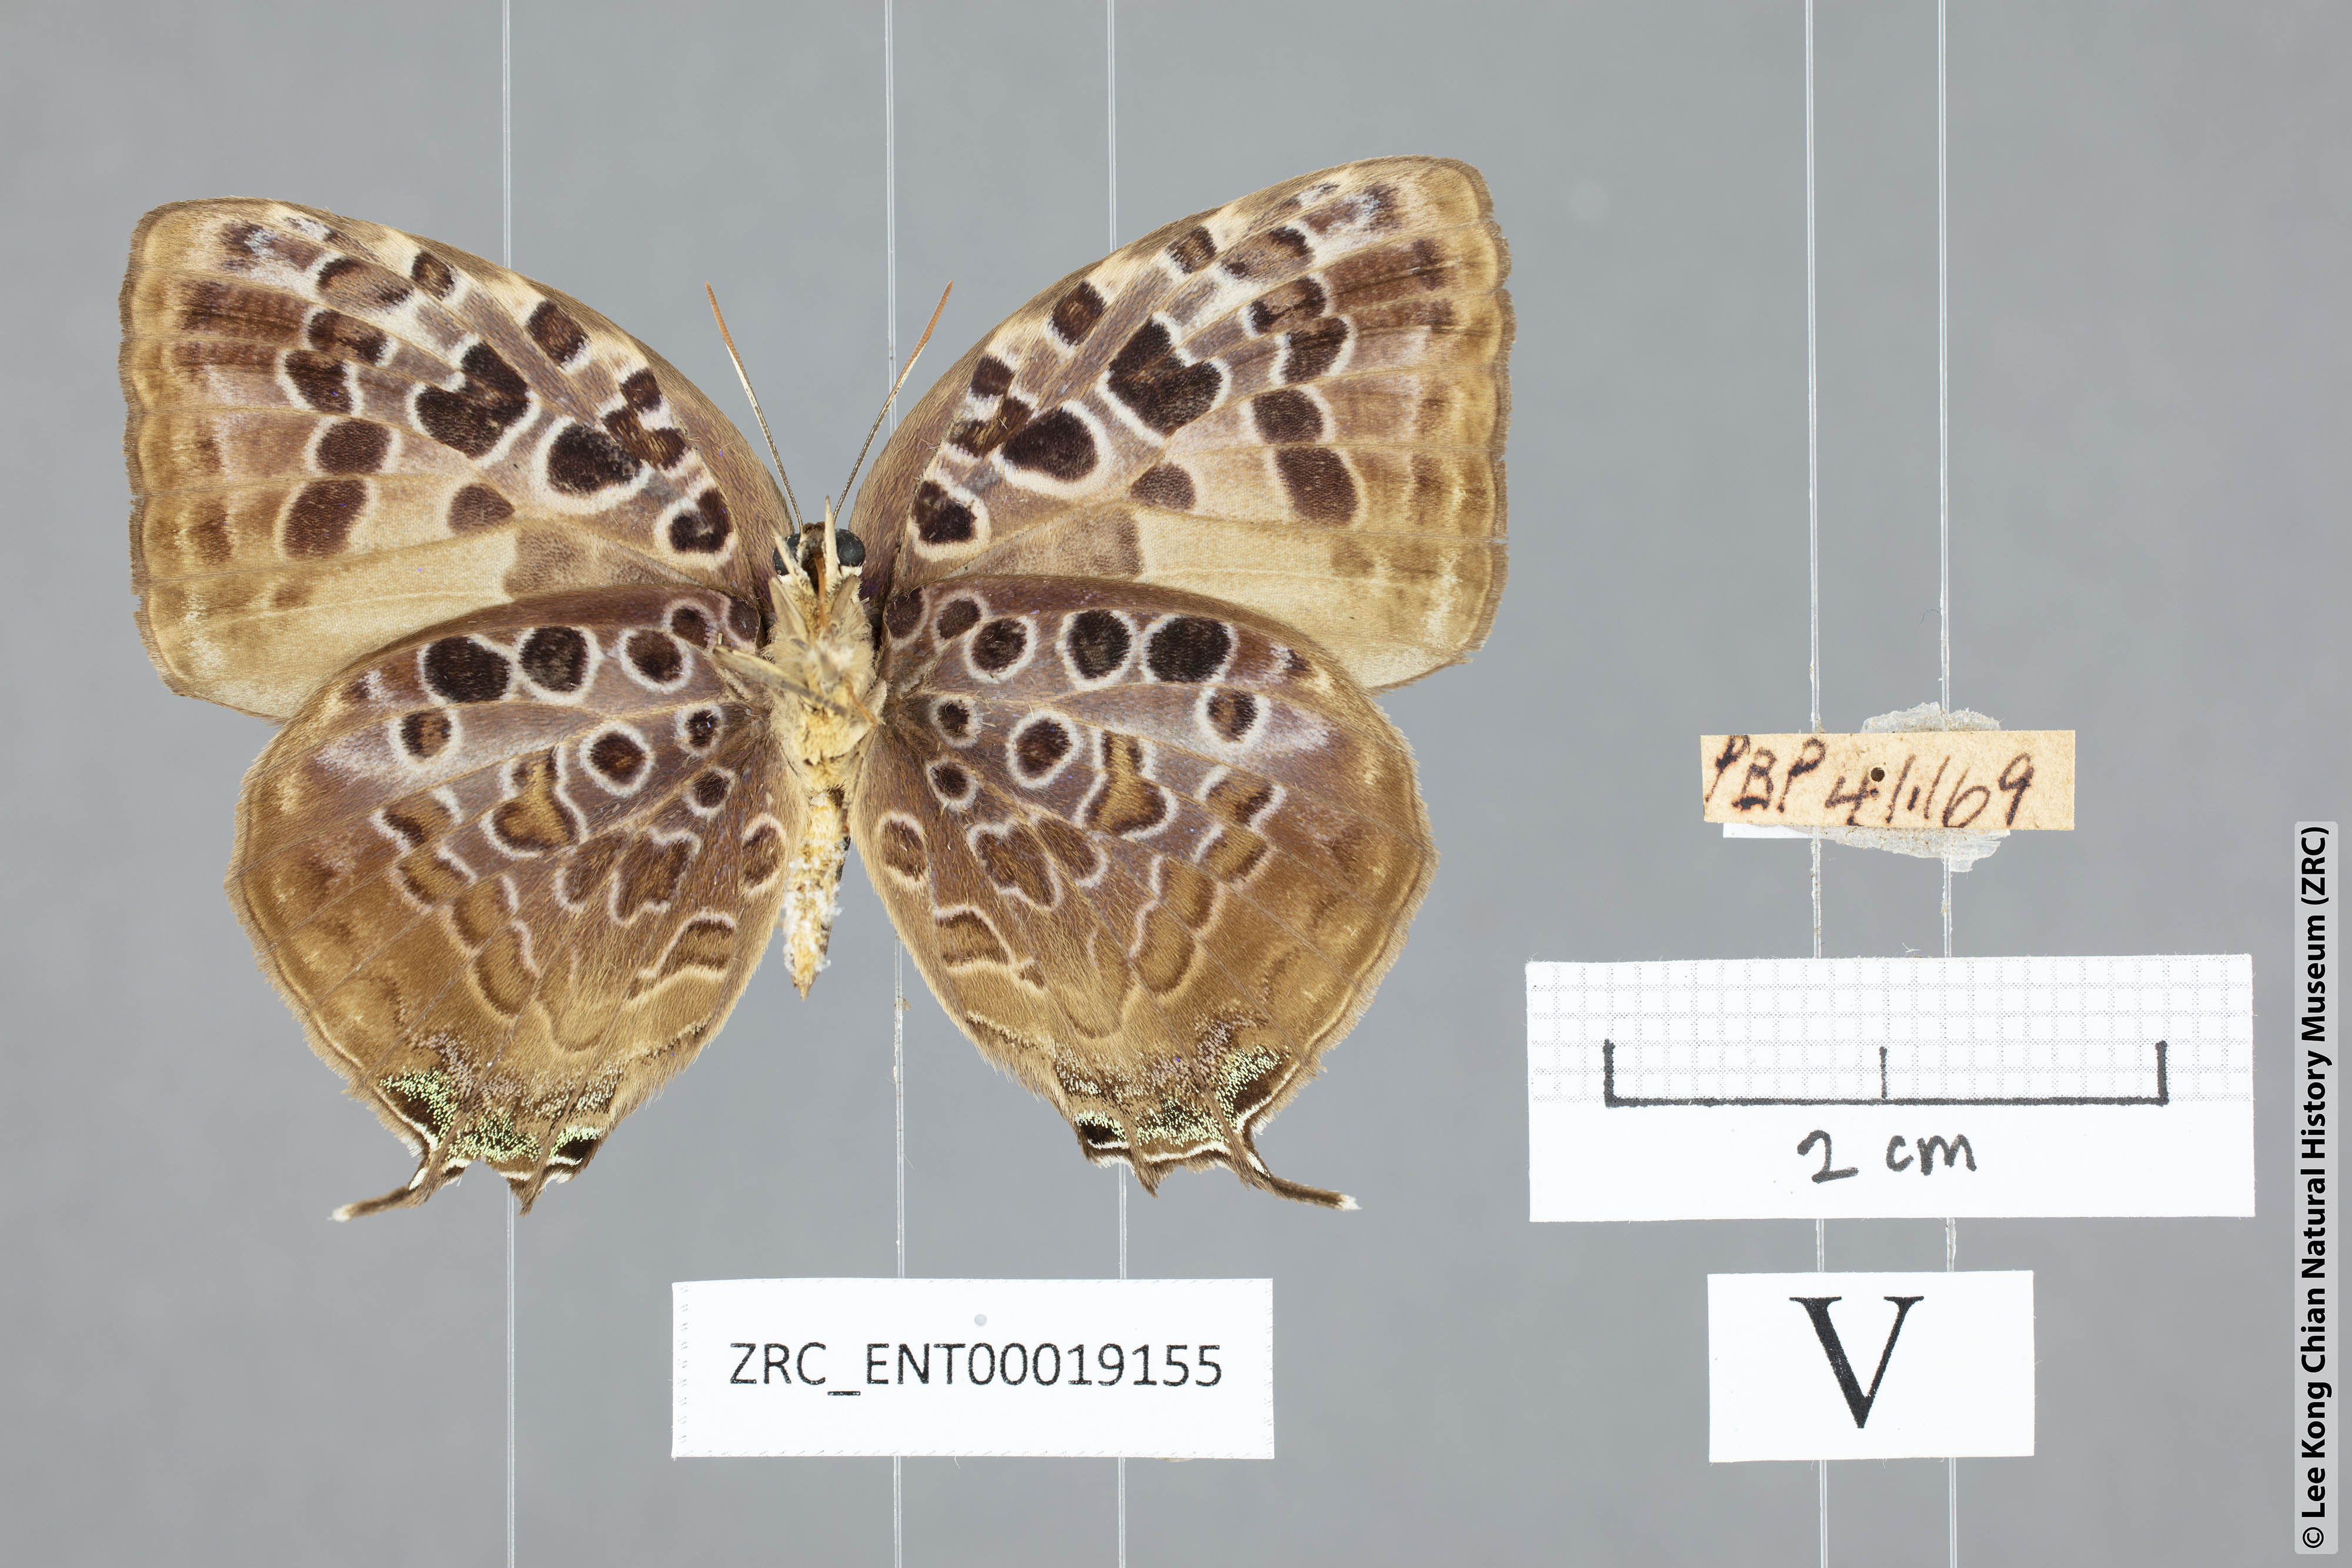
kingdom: Animalia
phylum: Arthropoda
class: Insecta
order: Lepidoptera
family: Lycaenidae
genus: Arhopala
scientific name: Arhopala anthelus
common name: Bushblue
